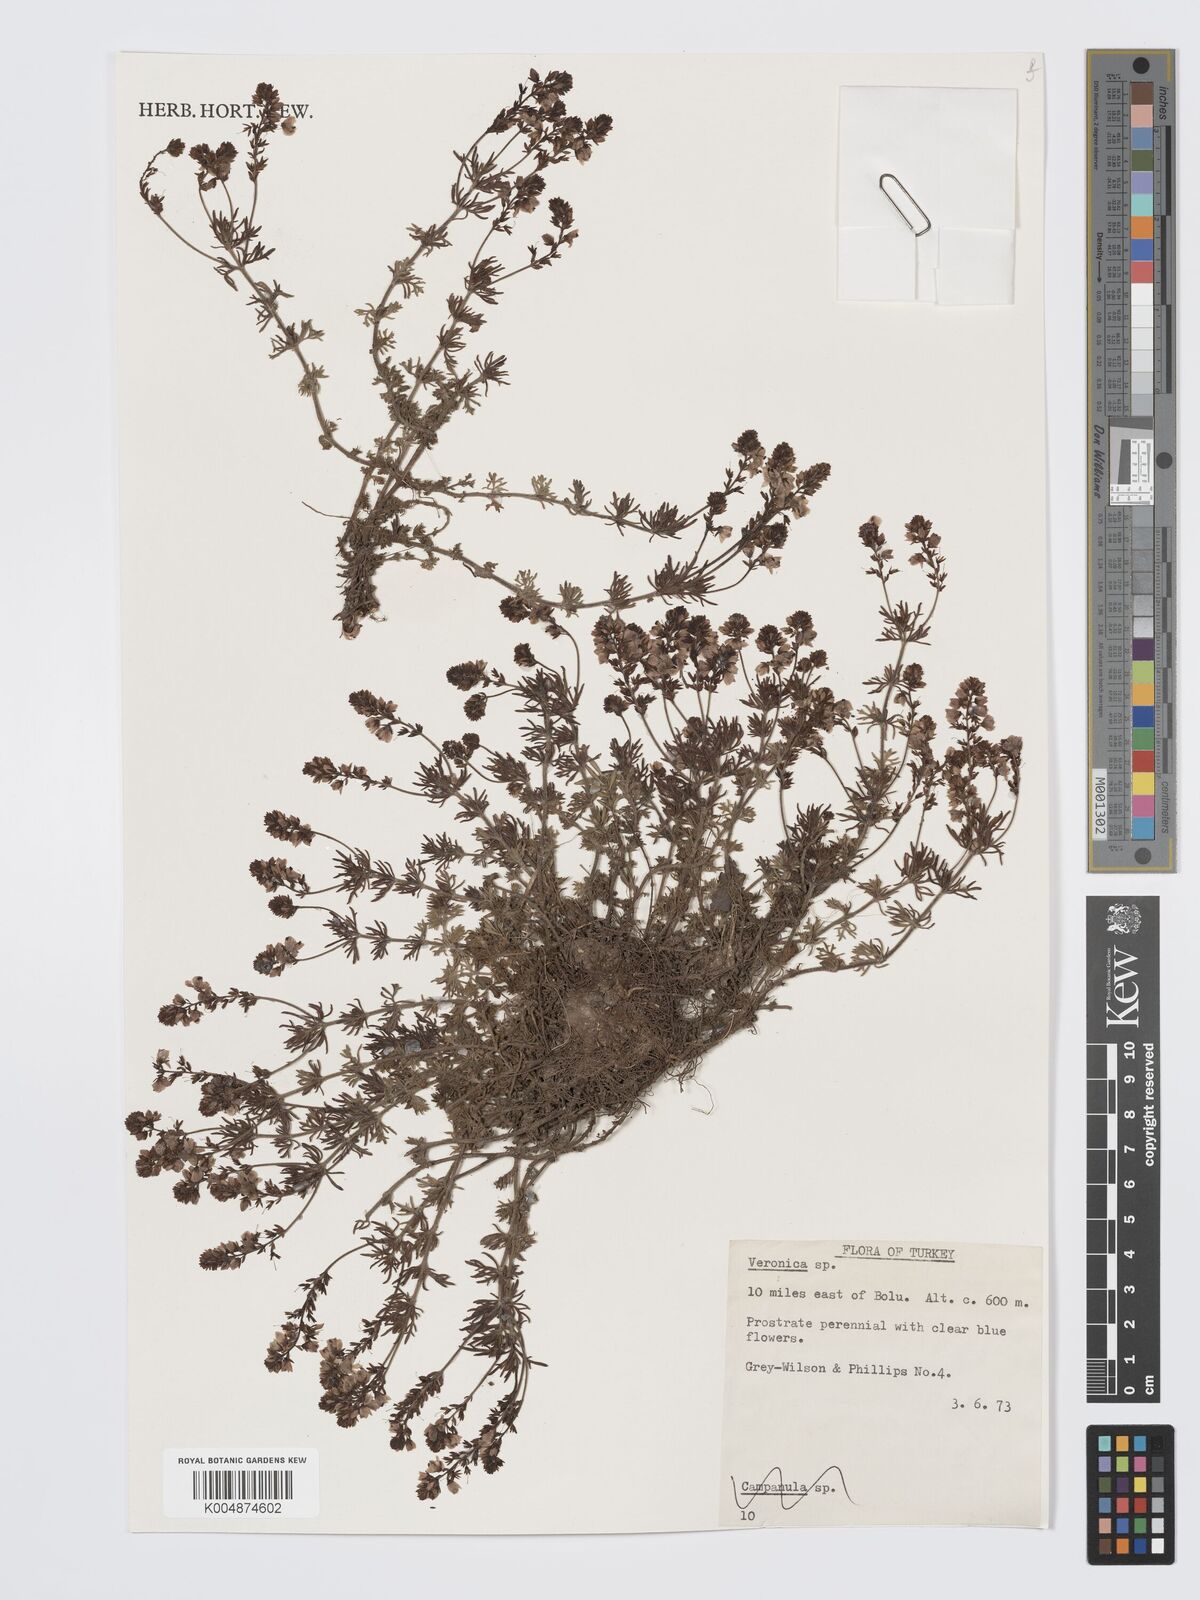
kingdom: Plantae
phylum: Tracheophyta
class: Magnoliopsida
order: Lamiales
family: Plantaginaceae
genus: Veronica
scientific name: Veronica
